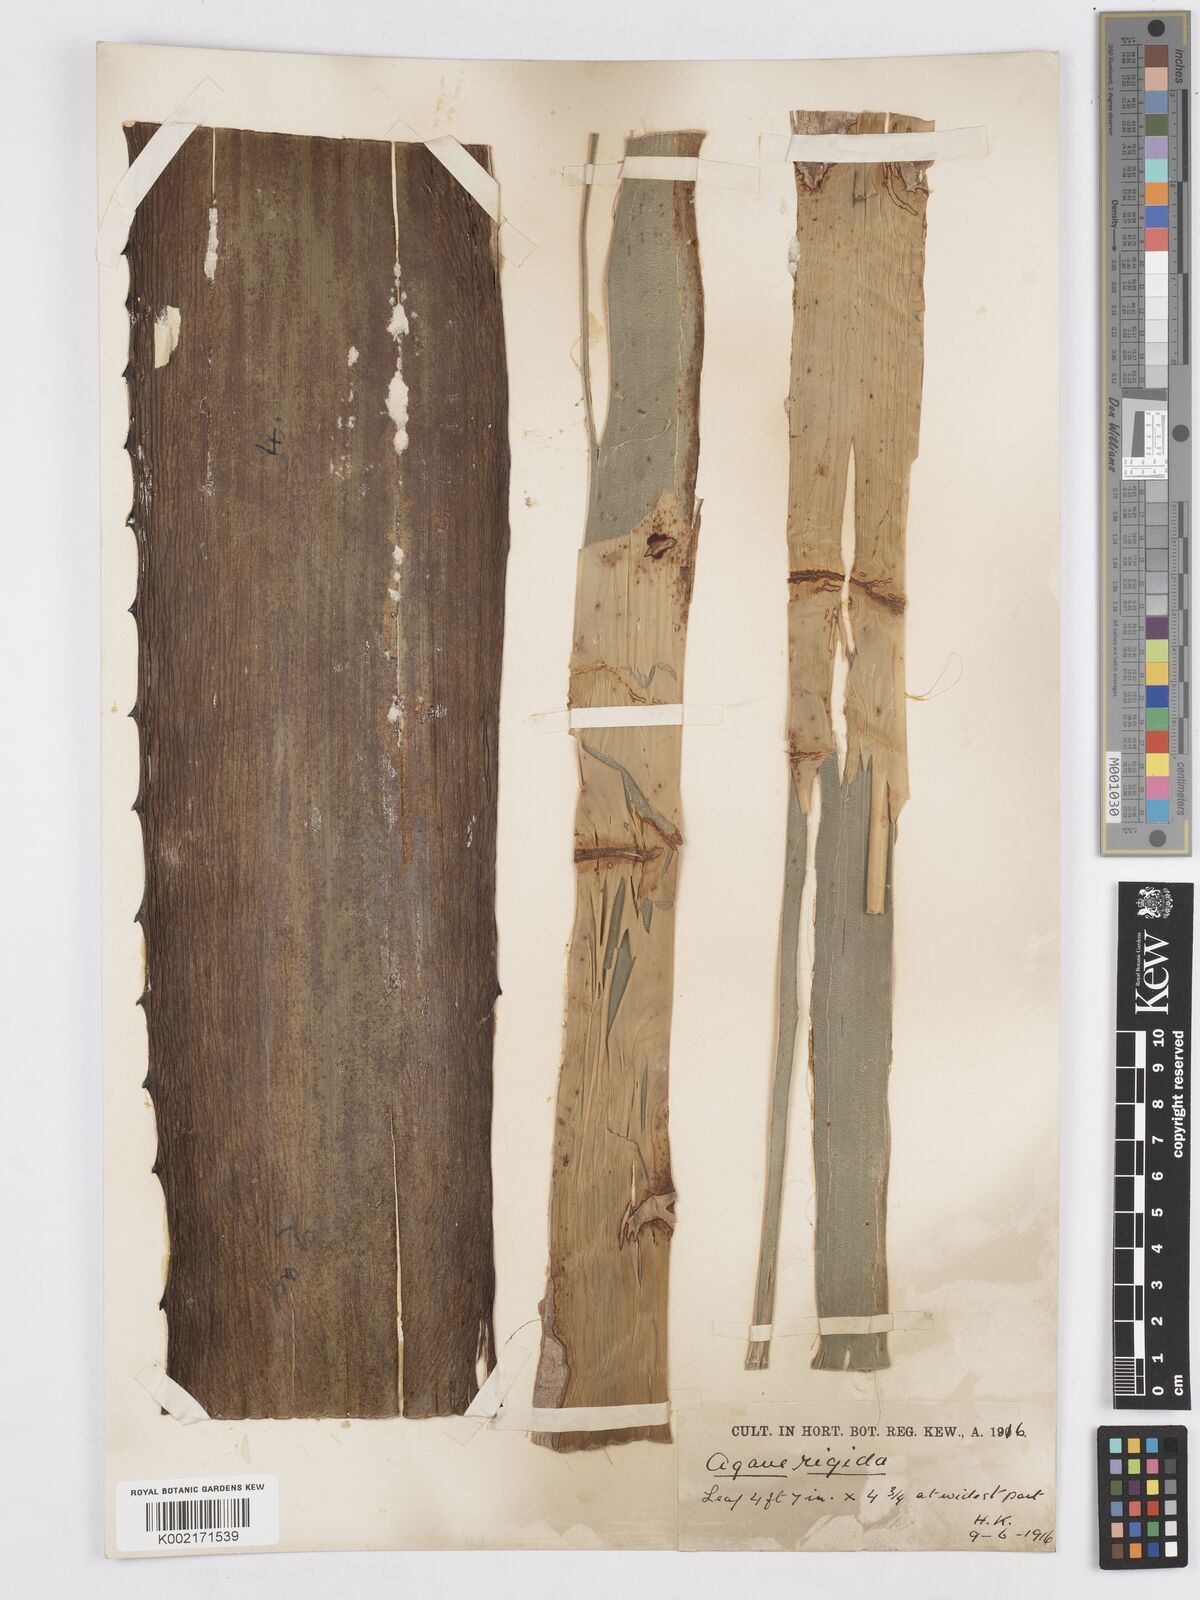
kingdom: Plantae
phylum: Tracheophyta
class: Liliopsida
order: Asparagales
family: Asparagaceae
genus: Agave
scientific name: Agave
